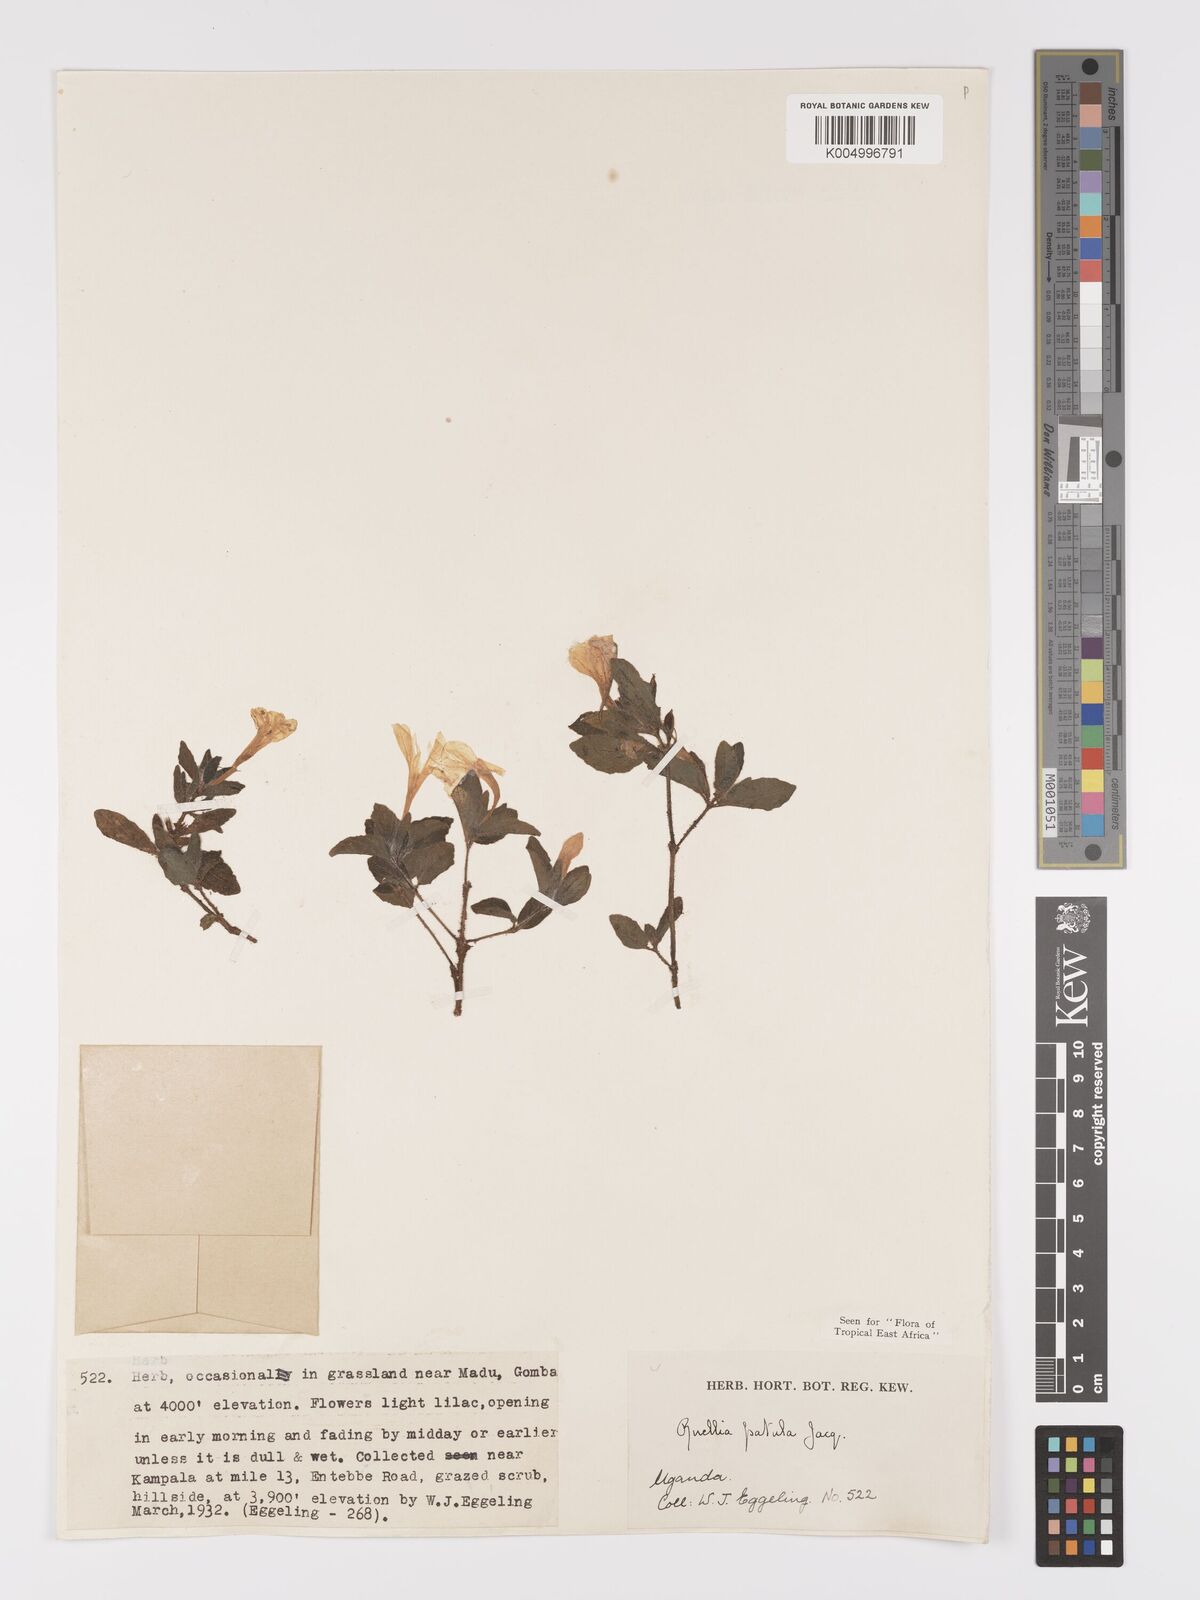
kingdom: Plantae
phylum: Tracheophyta
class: Magnoliopsida
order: Lamiales
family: Acanthaceae
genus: Ruellia
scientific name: Ruellia patula
